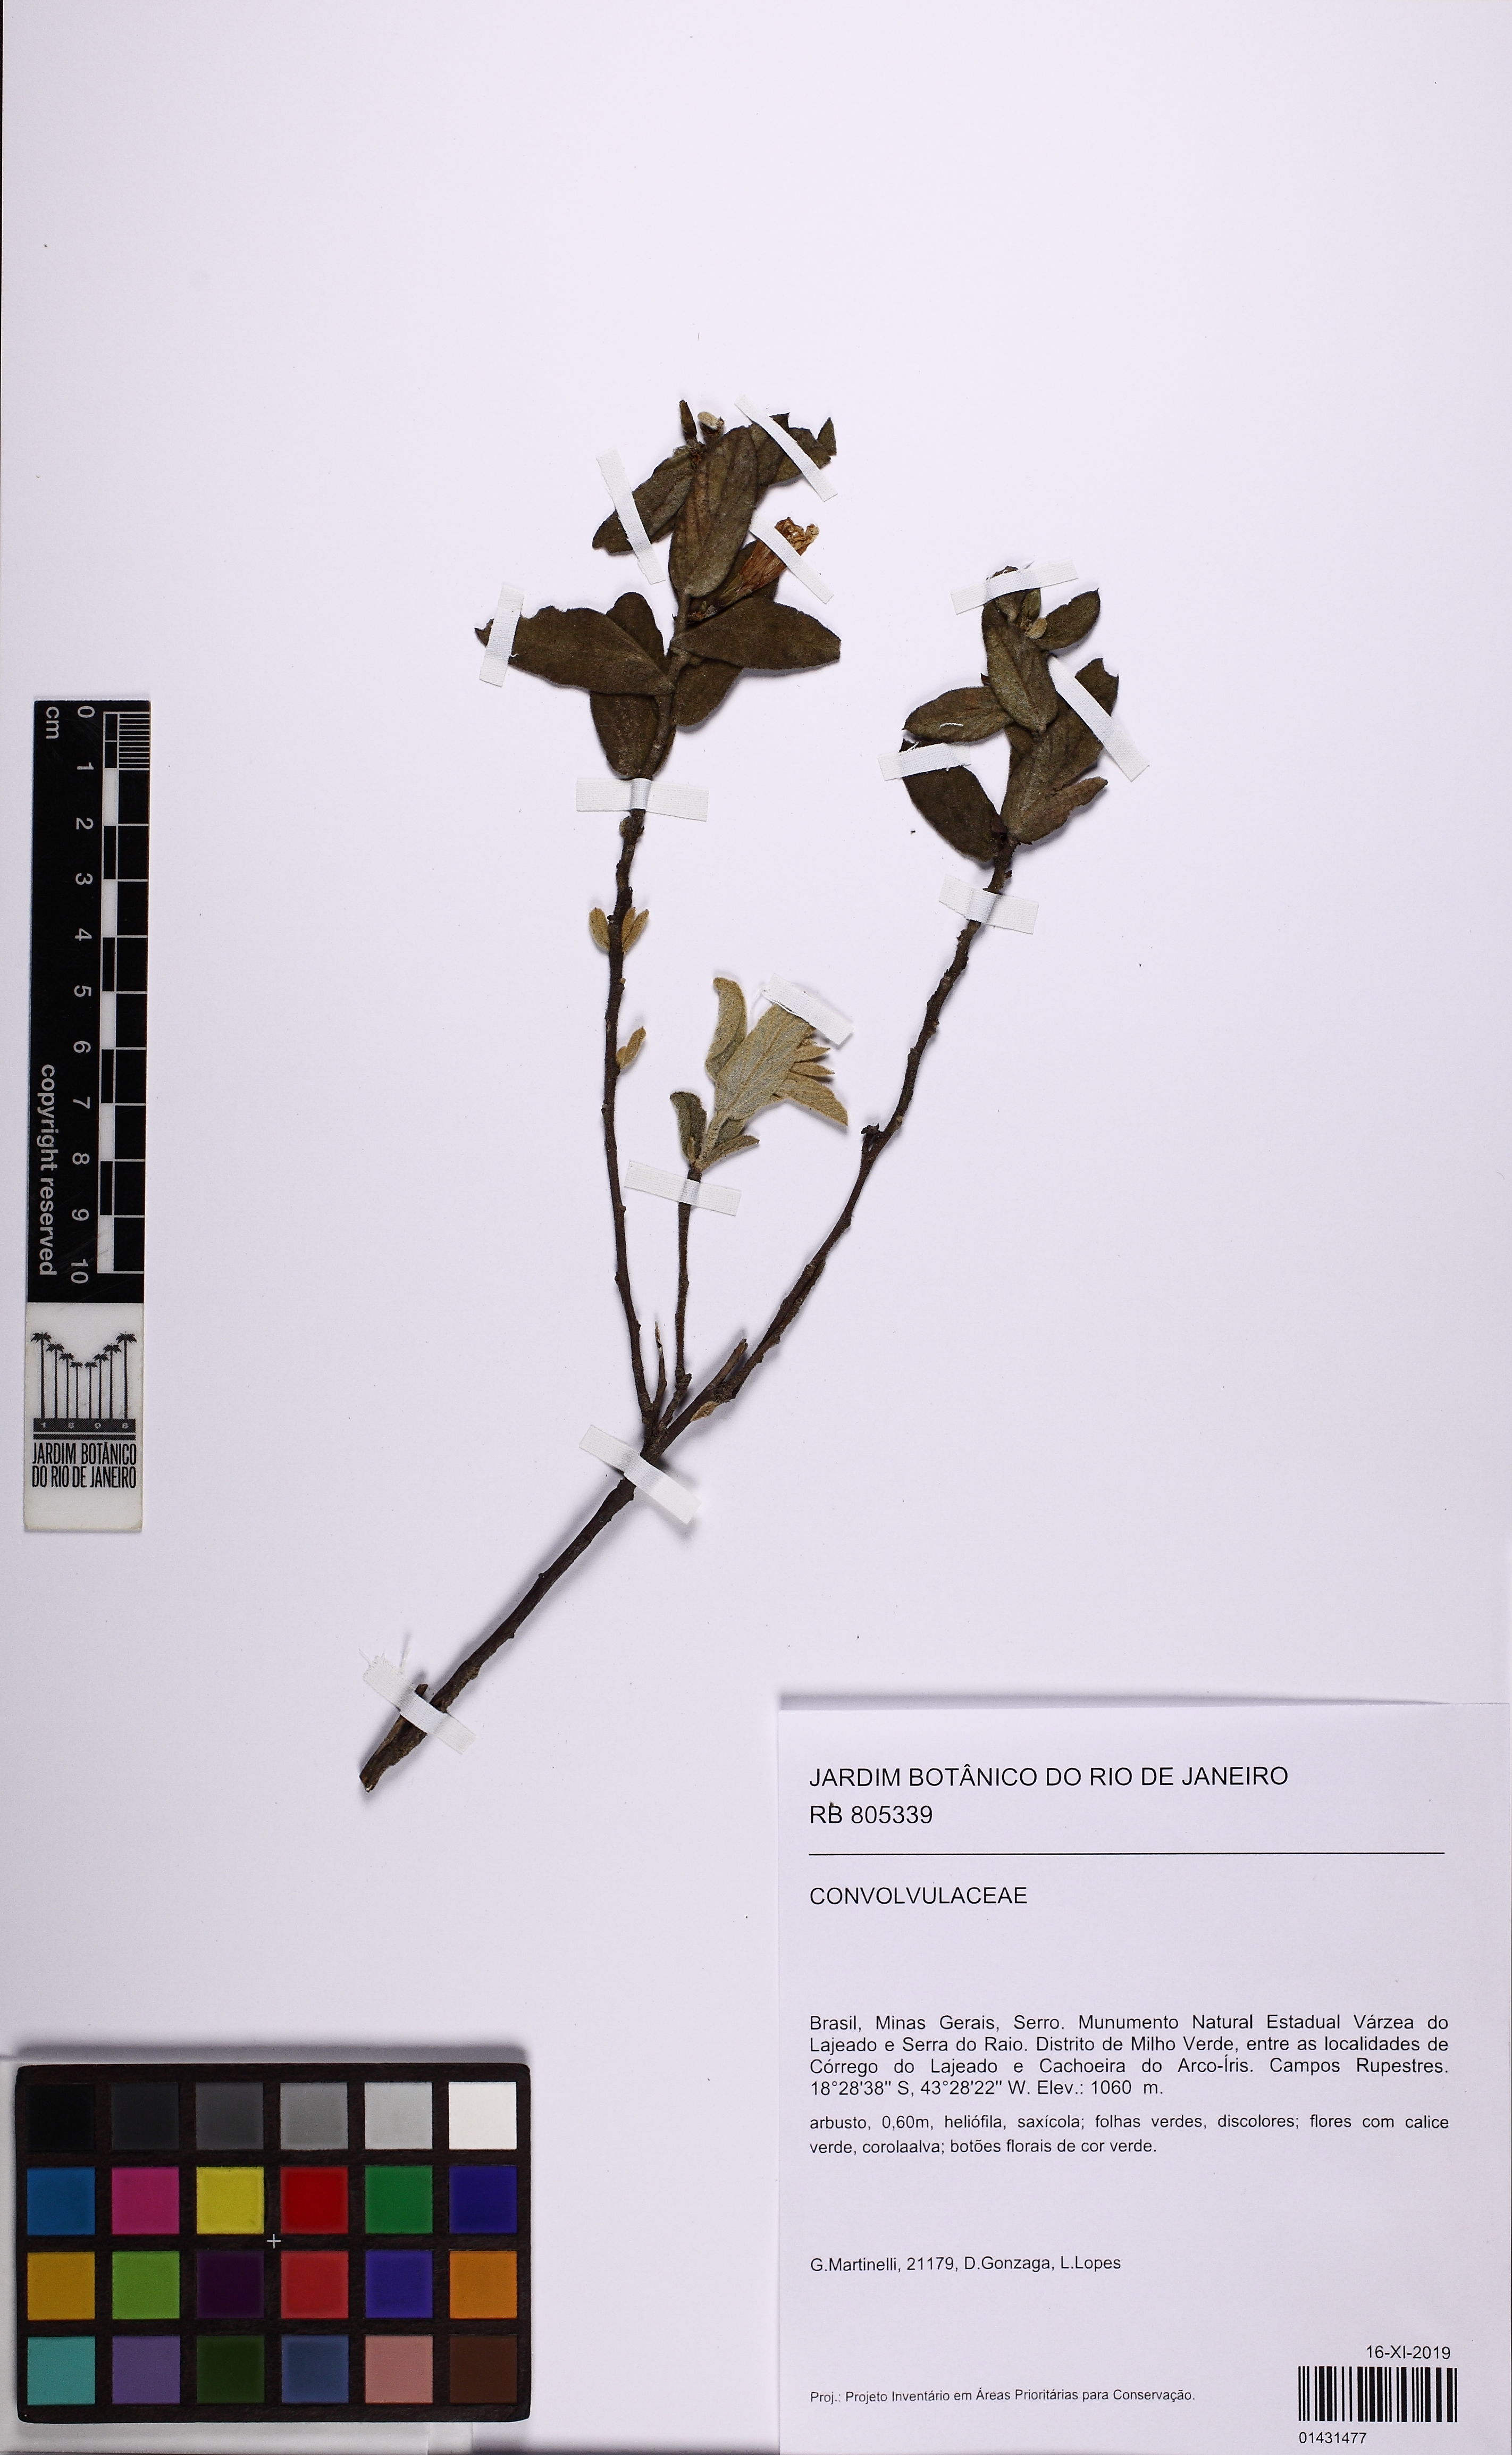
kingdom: Plantae
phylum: Tracheophyta
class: Magnoliopsida
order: Solanales
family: Convolvulaceae
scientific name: Convolvulaceae
